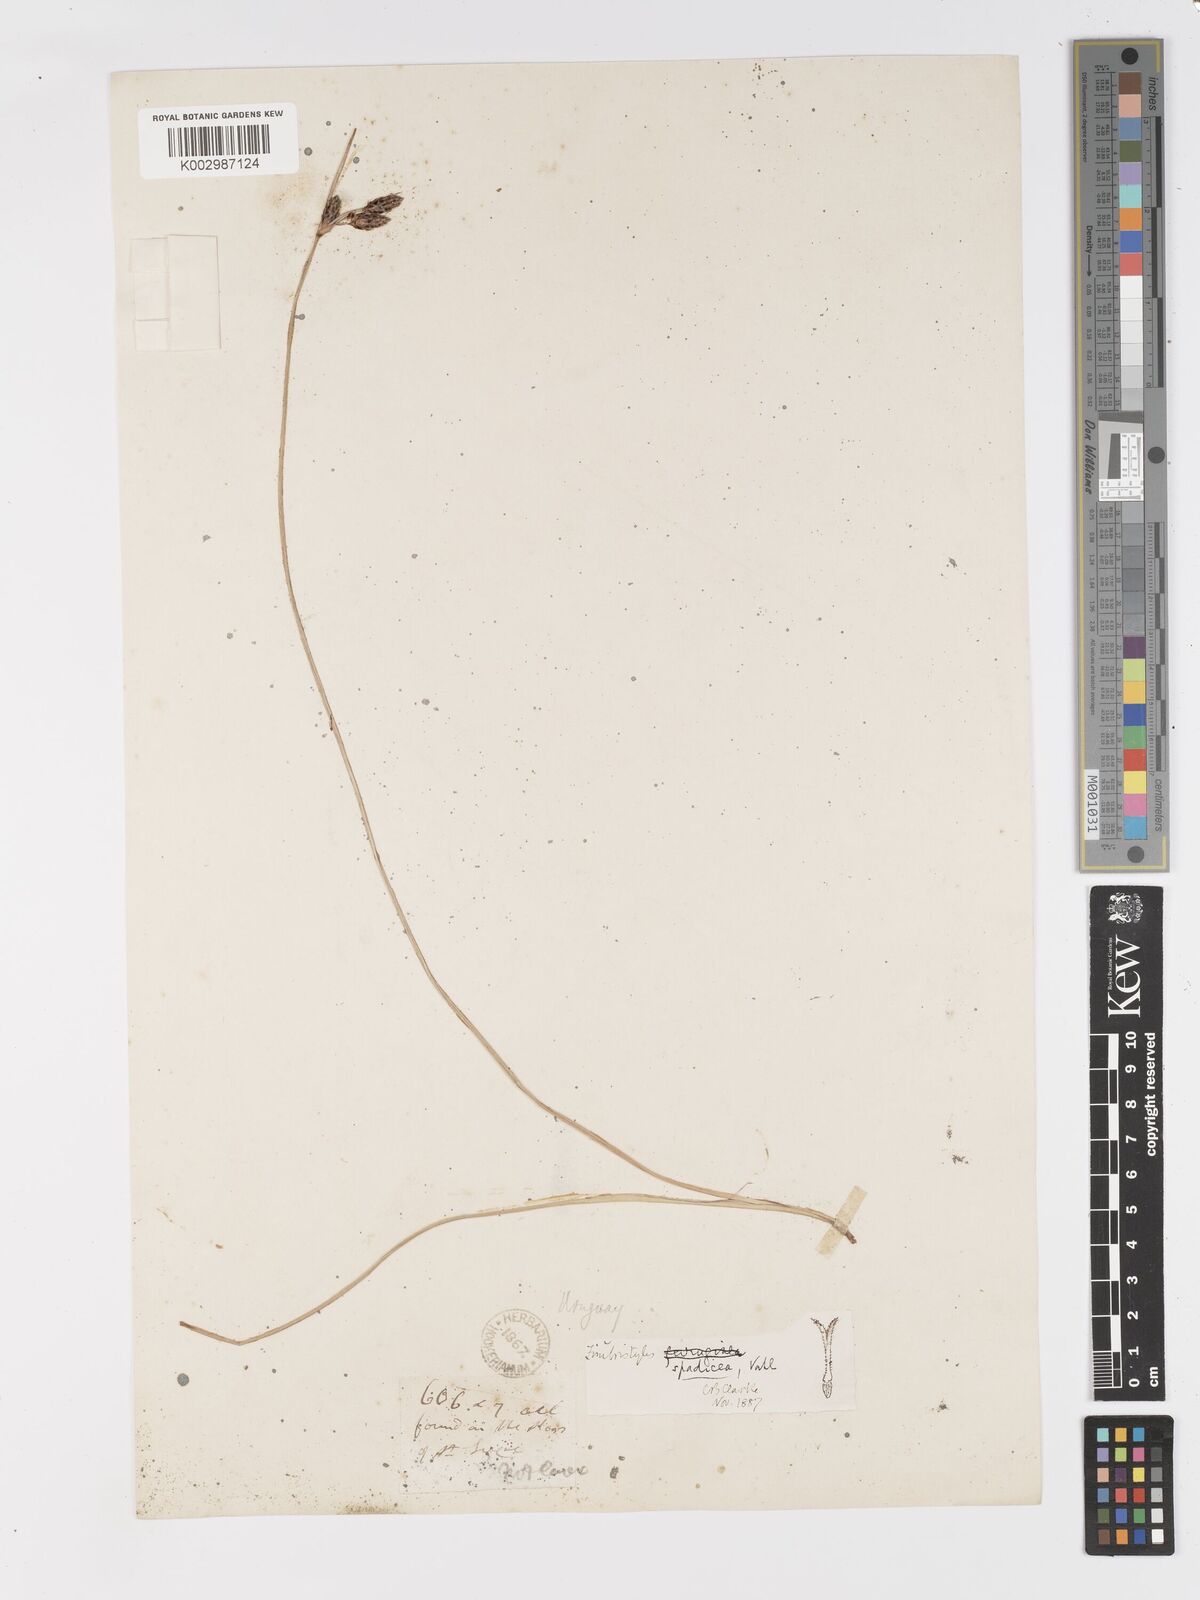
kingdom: Plantae
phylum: Tracheophyta
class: Liliopsida
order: Poales
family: Cyperaceae
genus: Fimbristylis
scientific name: Fimbristylis spadicea
